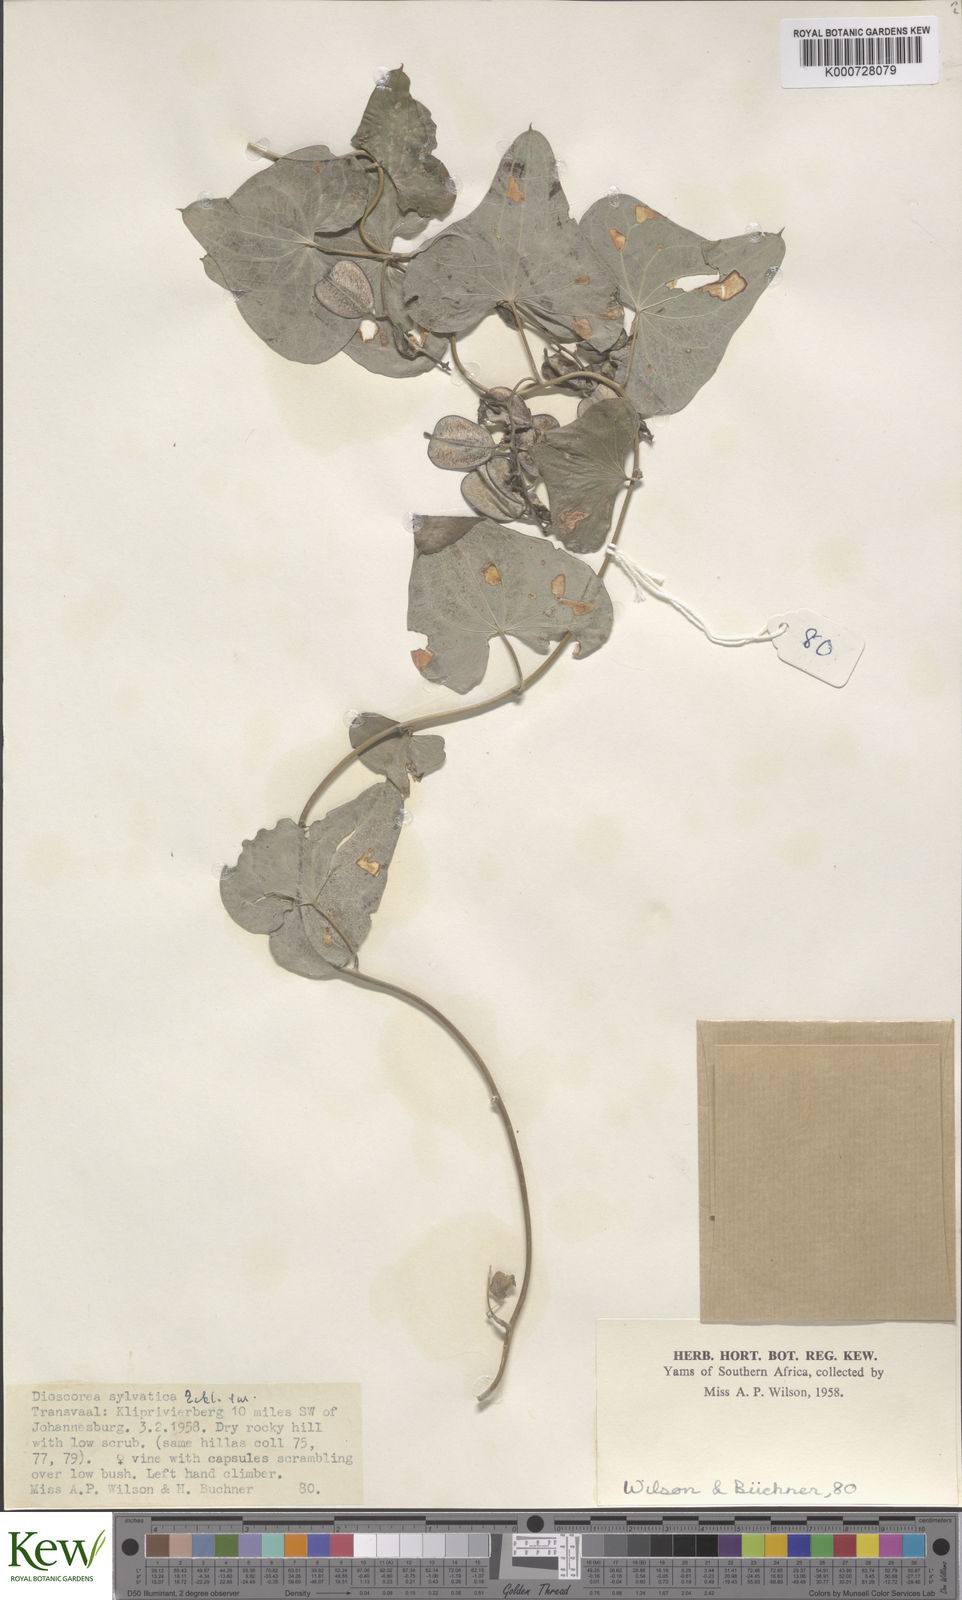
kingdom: Plantae
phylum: Tracheophyta
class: Liliopsida
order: Dioscoreales
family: Dioscoreaceae
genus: Dioscorea
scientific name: Dioscorea sylvatica
